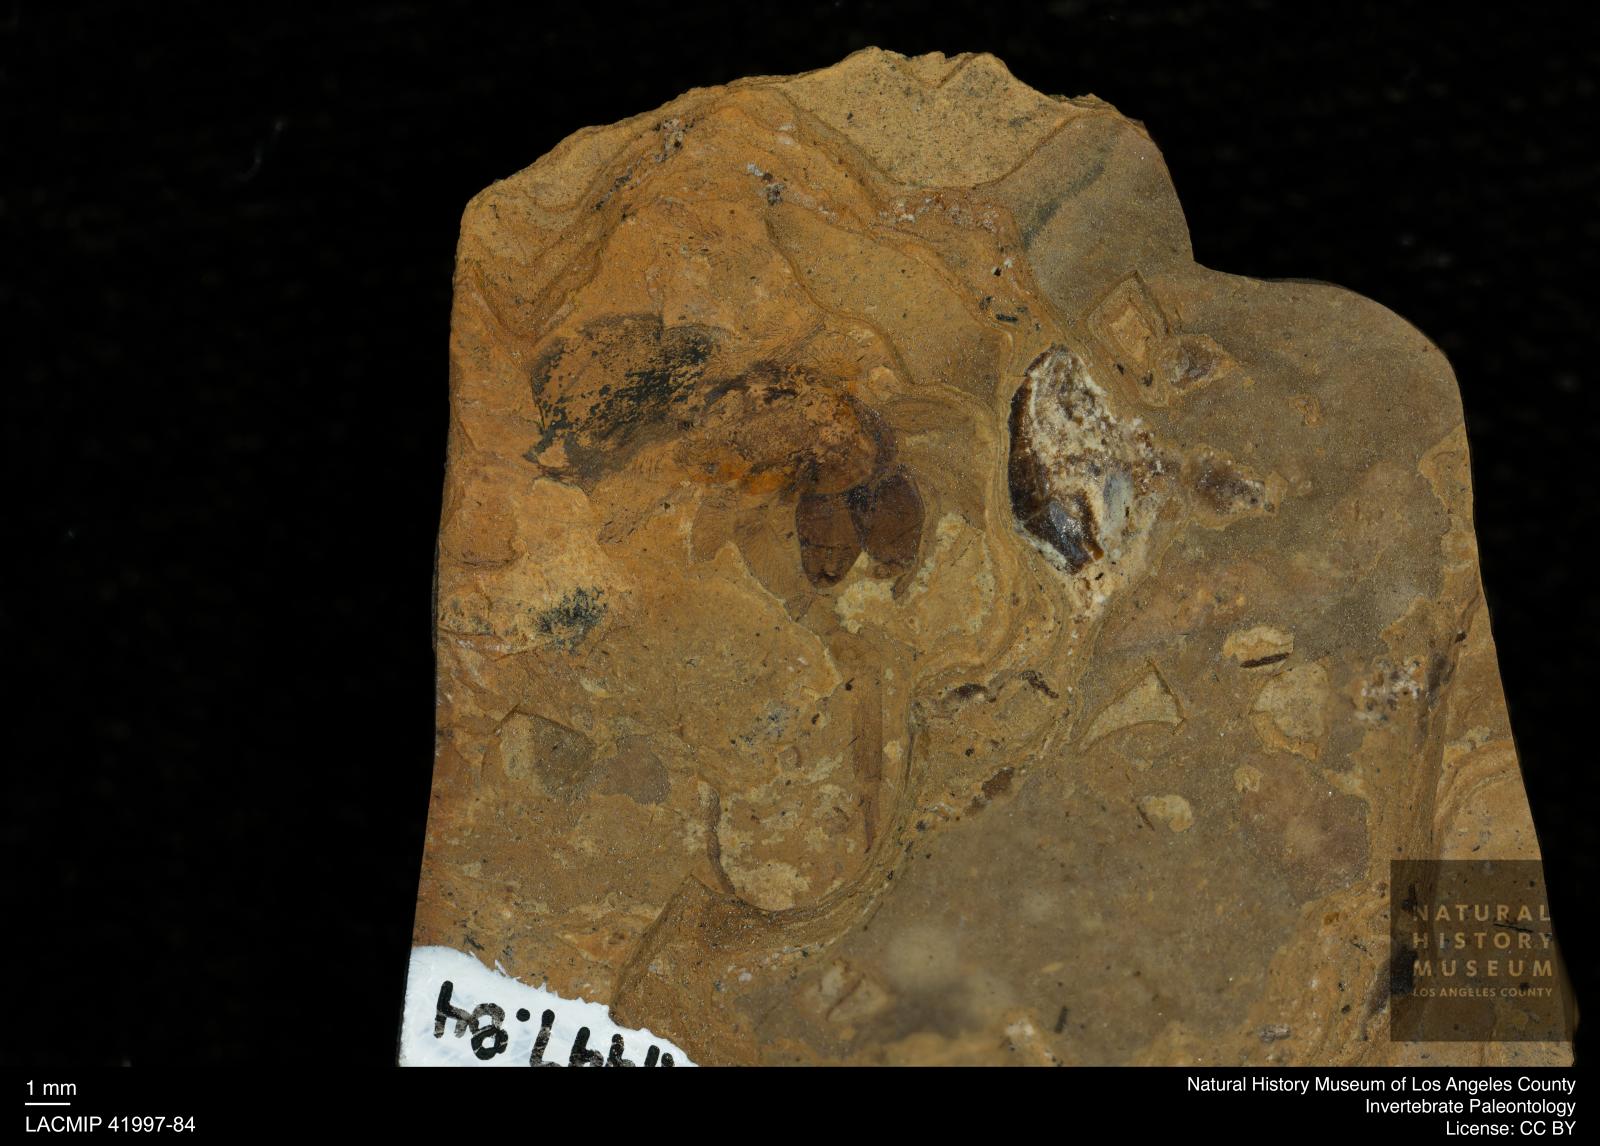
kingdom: Animalia
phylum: Arthropoda
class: Arachnida
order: Araneae
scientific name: Araneae
